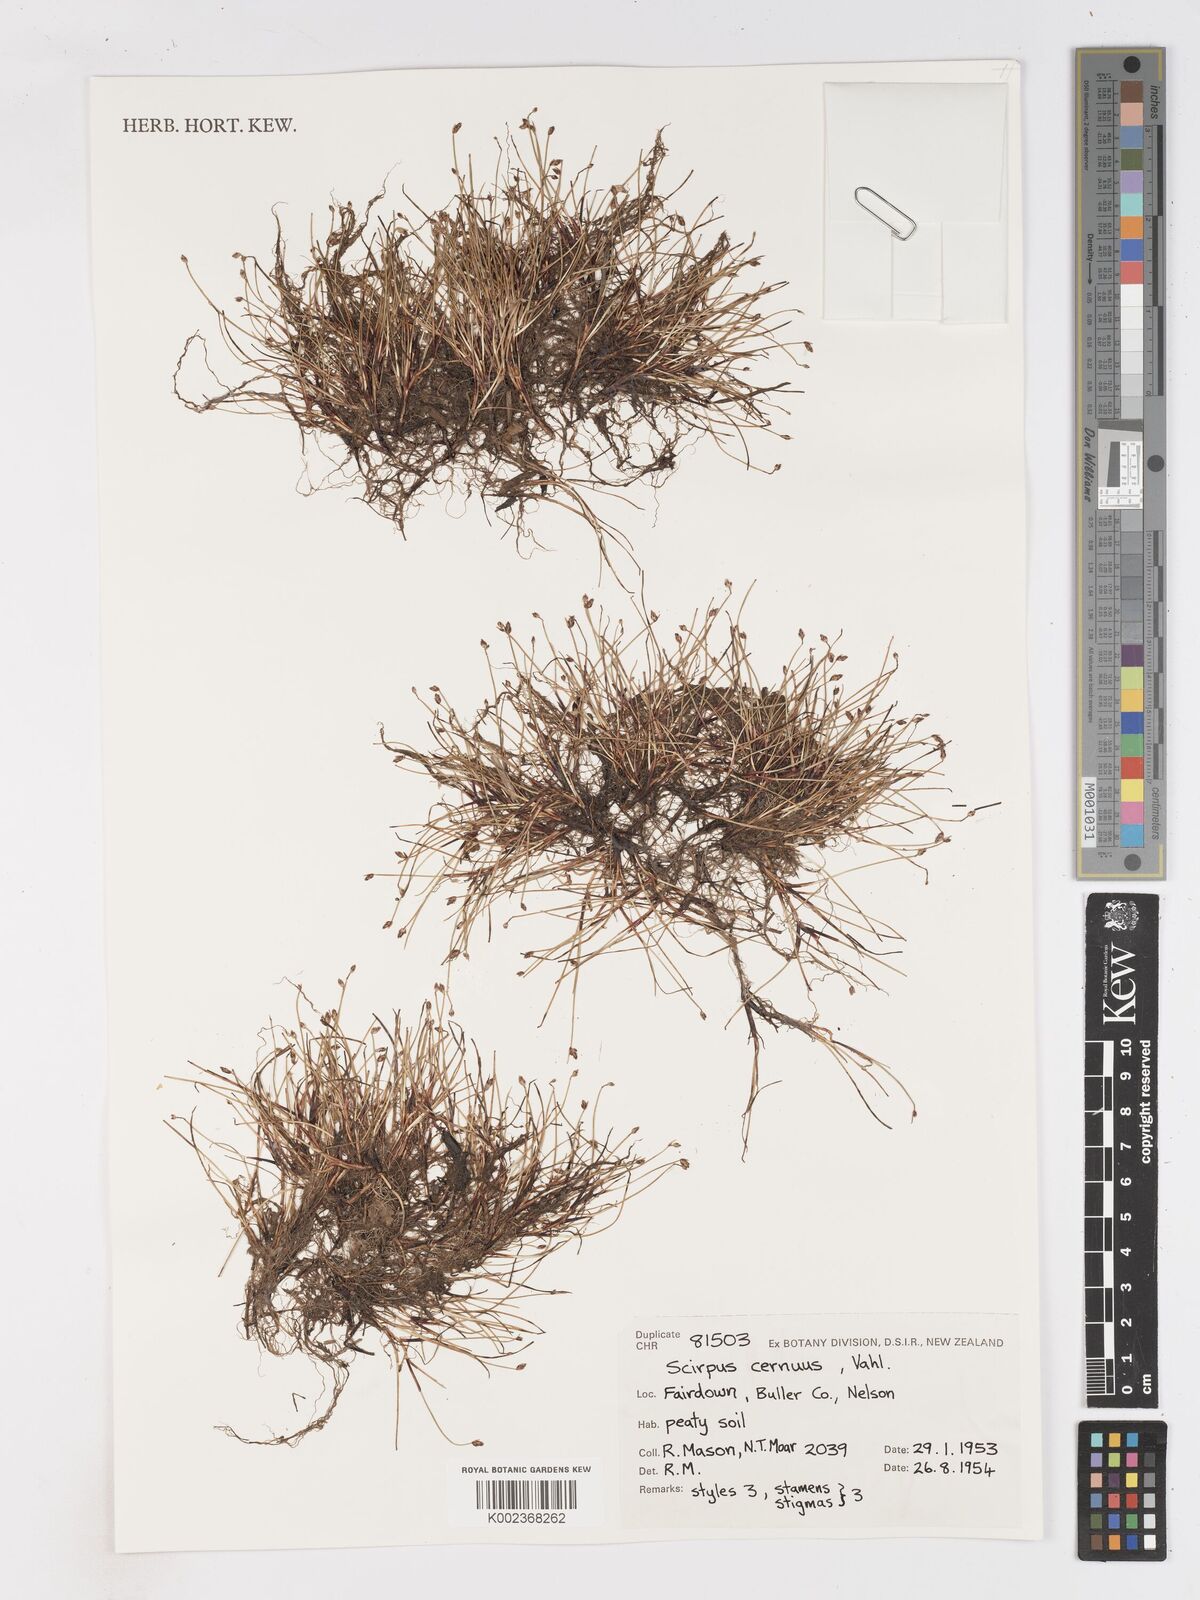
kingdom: Plantae
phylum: Tracheophyta
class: Liliopsida
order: Poales
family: Cyperaceae
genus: Isolepis
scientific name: Isolepis cernua
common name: Slender club-rush
